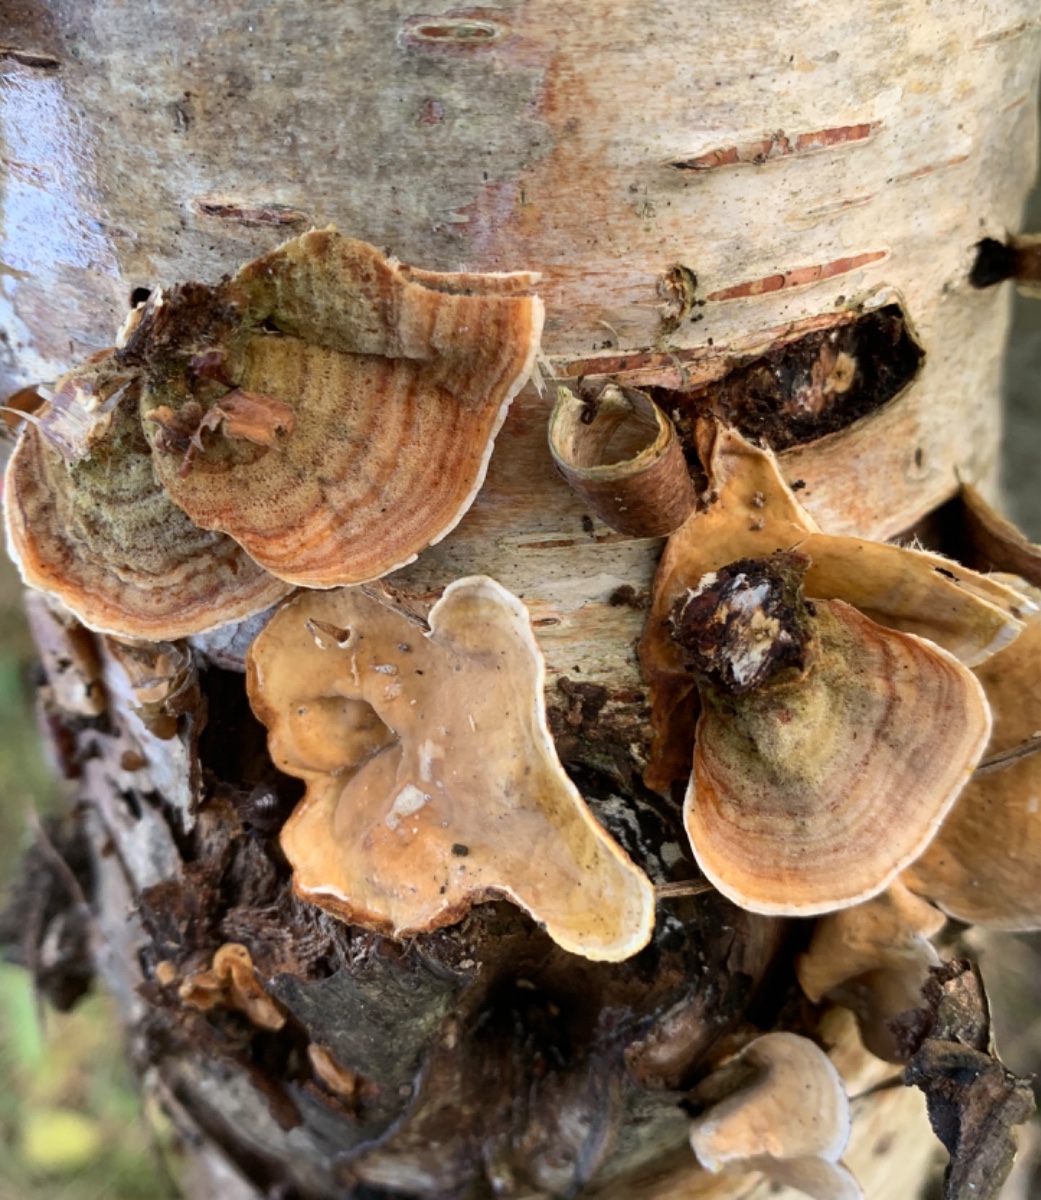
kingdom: Fungi
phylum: Basidiomycota
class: Agaricomycetes
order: Russulales
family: Stereaceae
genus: Stereum
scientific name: Stereum subtomentosum
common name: smuk lædersvamp
